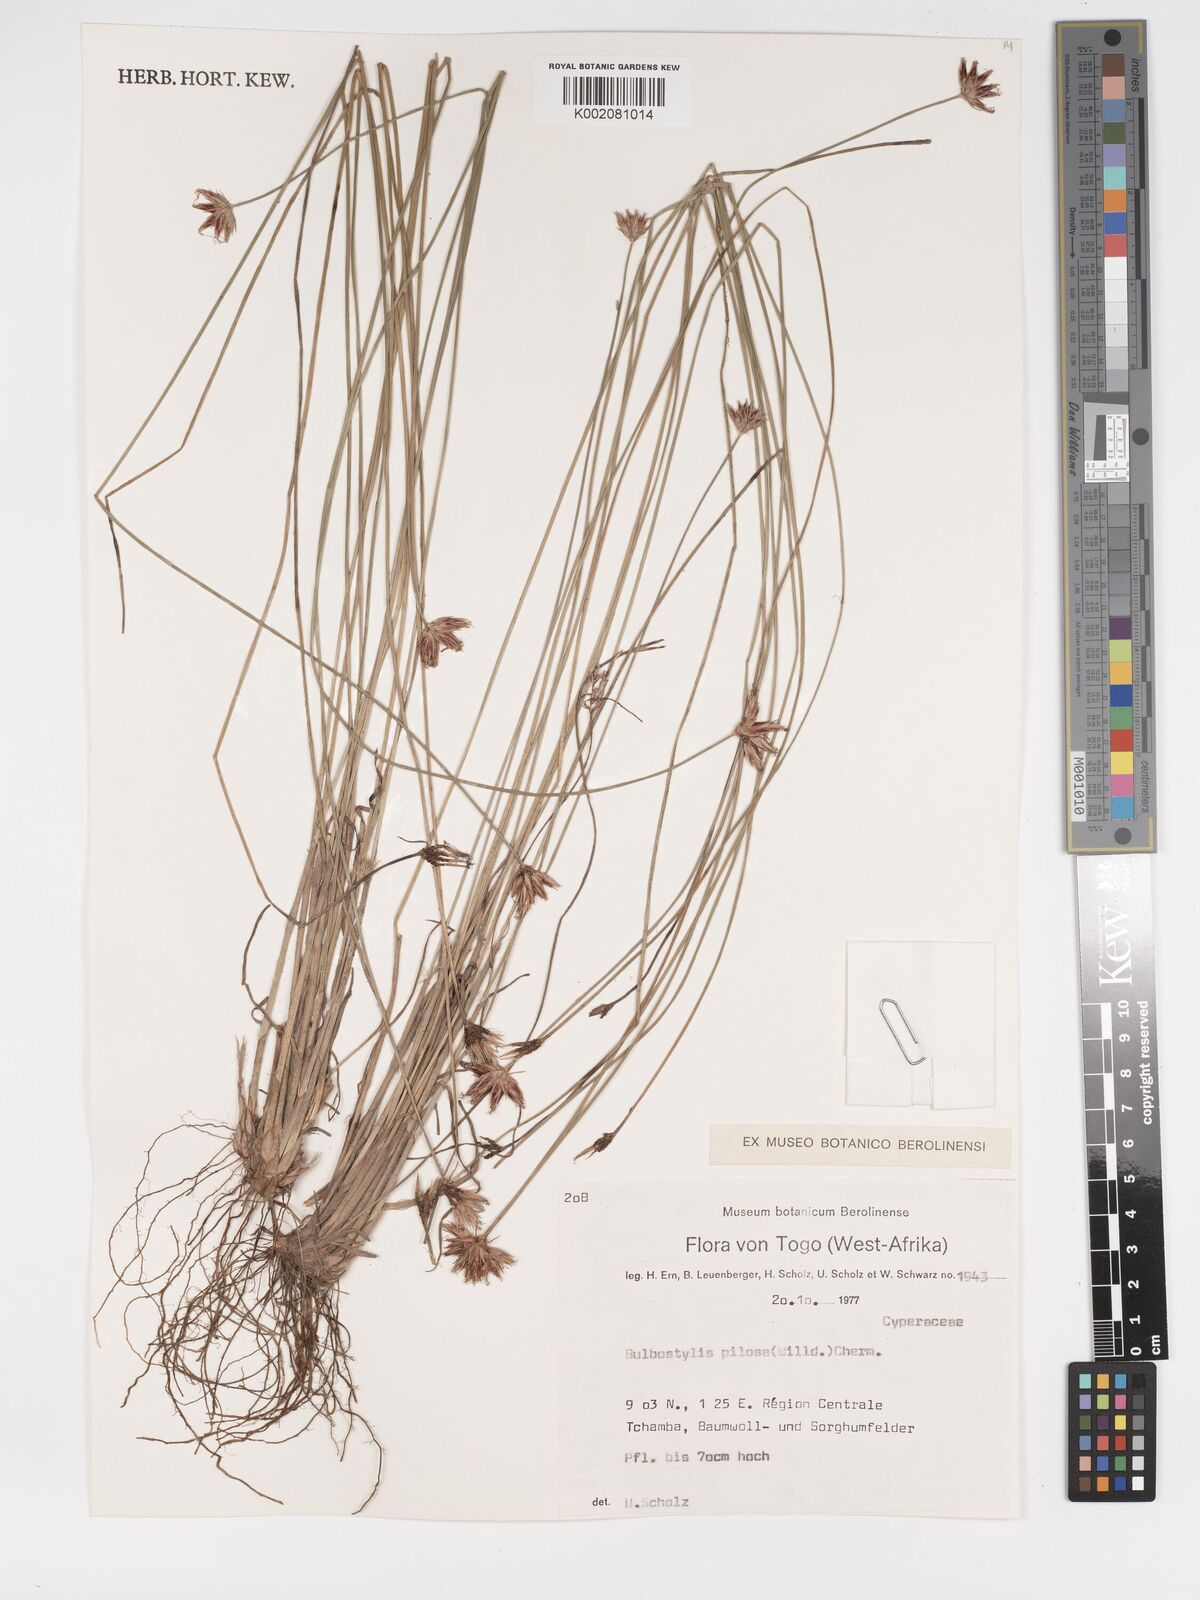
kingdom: Plantae
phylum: Tracheophyta
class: Liliopsida
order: Poales
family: Cyperaceae
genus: Bulbostylis
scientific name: Bulbostylis pilosa
